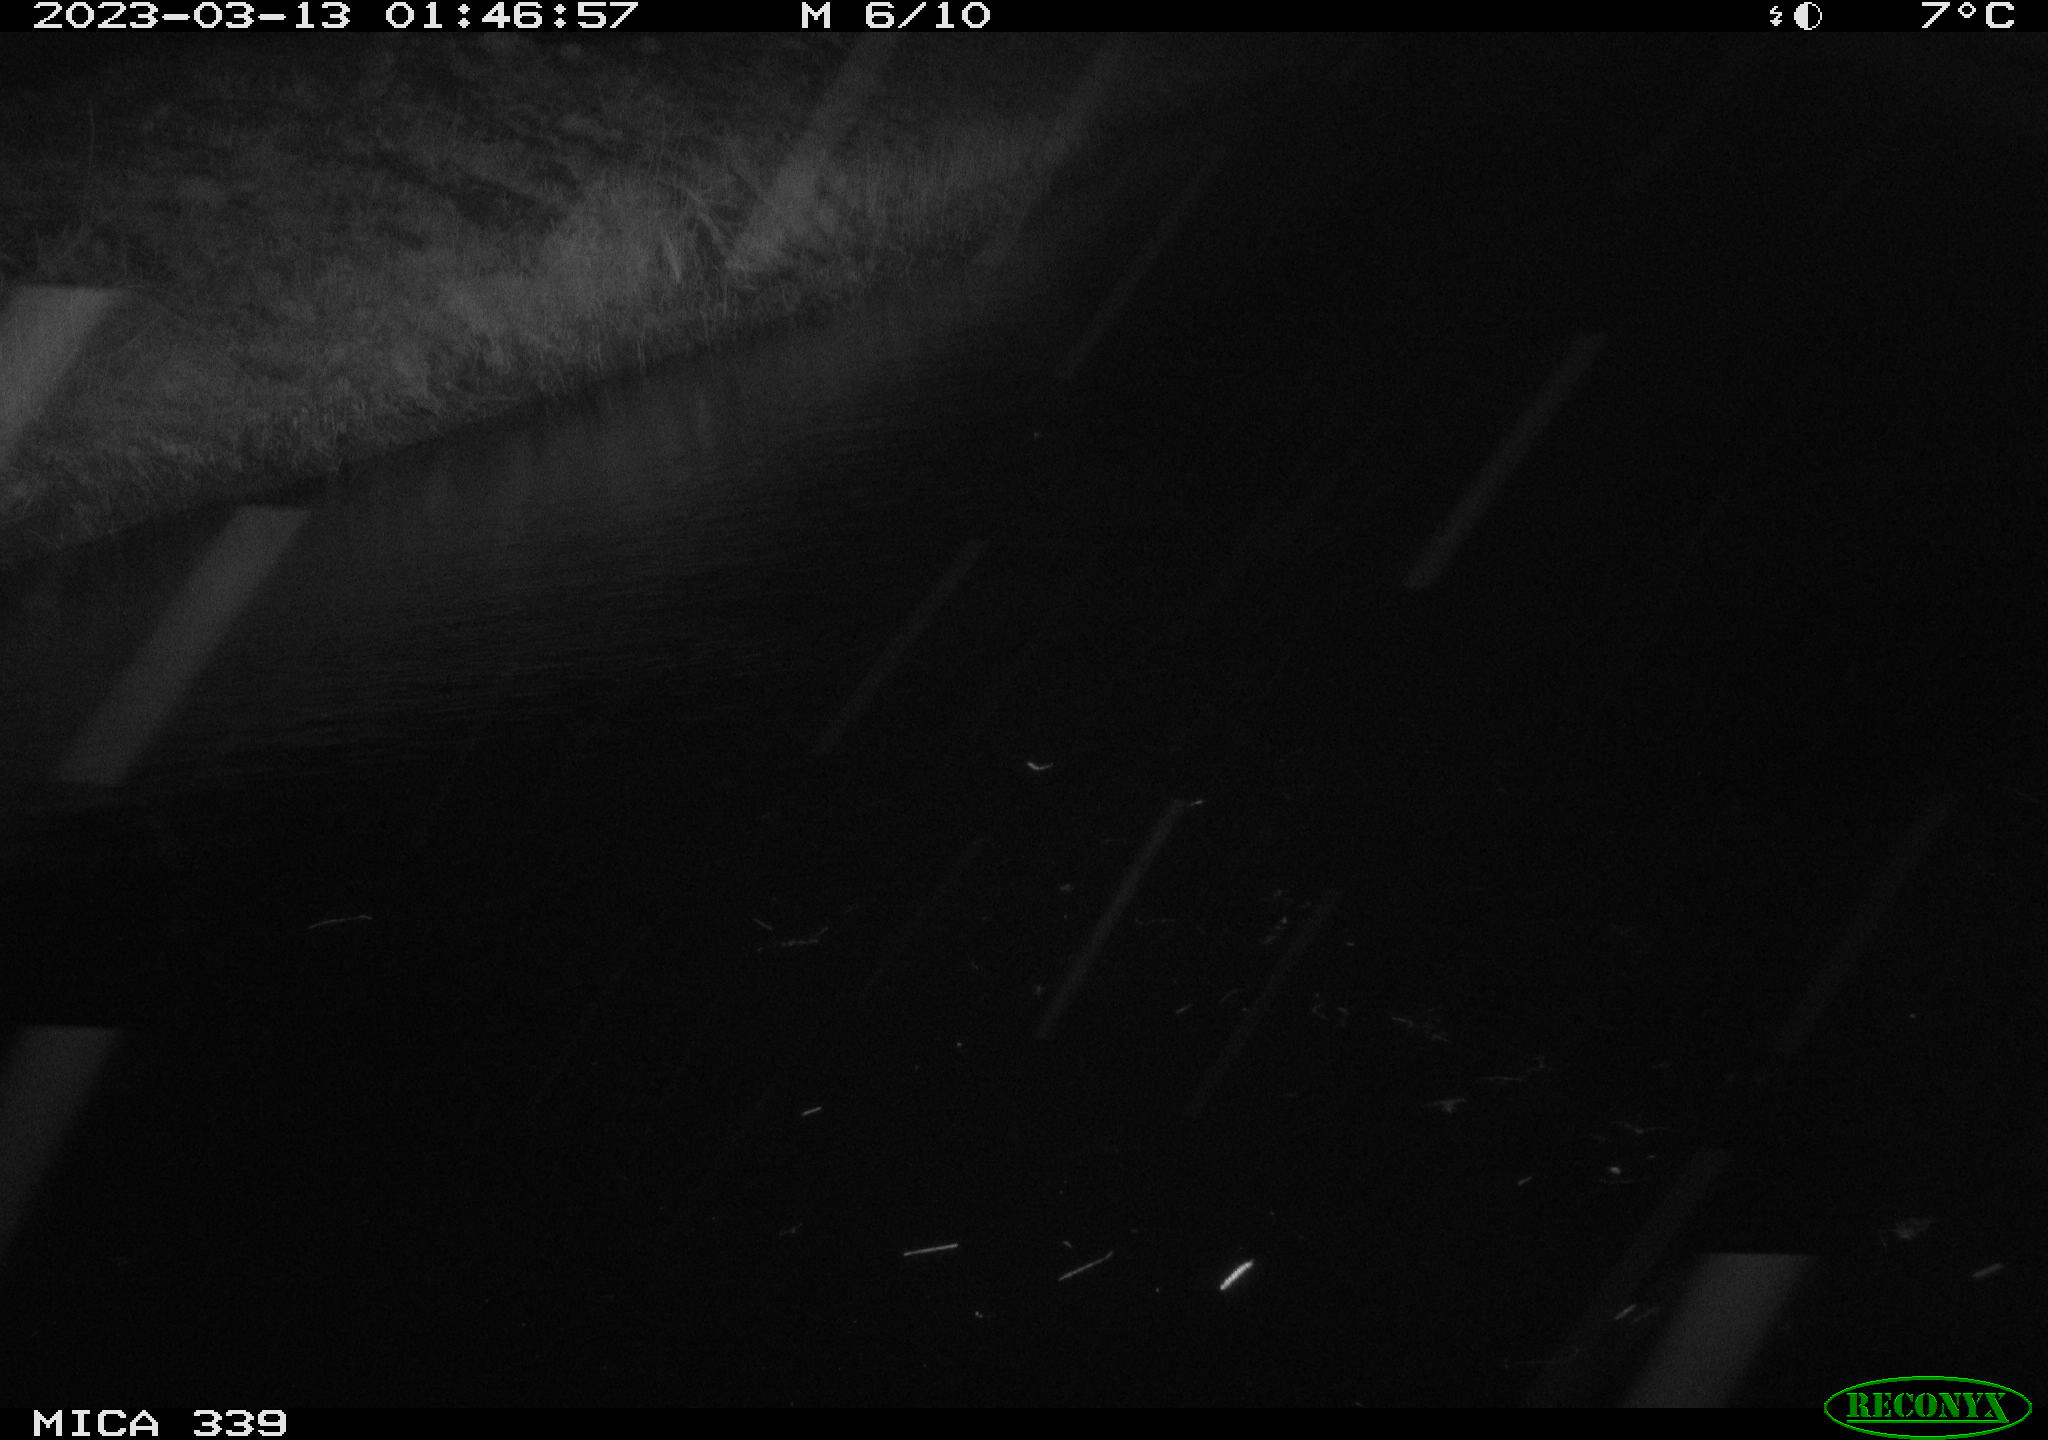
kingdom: Animalia
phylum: Chordata
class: Aves
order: Gruiformes
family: Rallidae
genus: Fulica
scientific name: Fulica atra
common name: Eurasian coot
